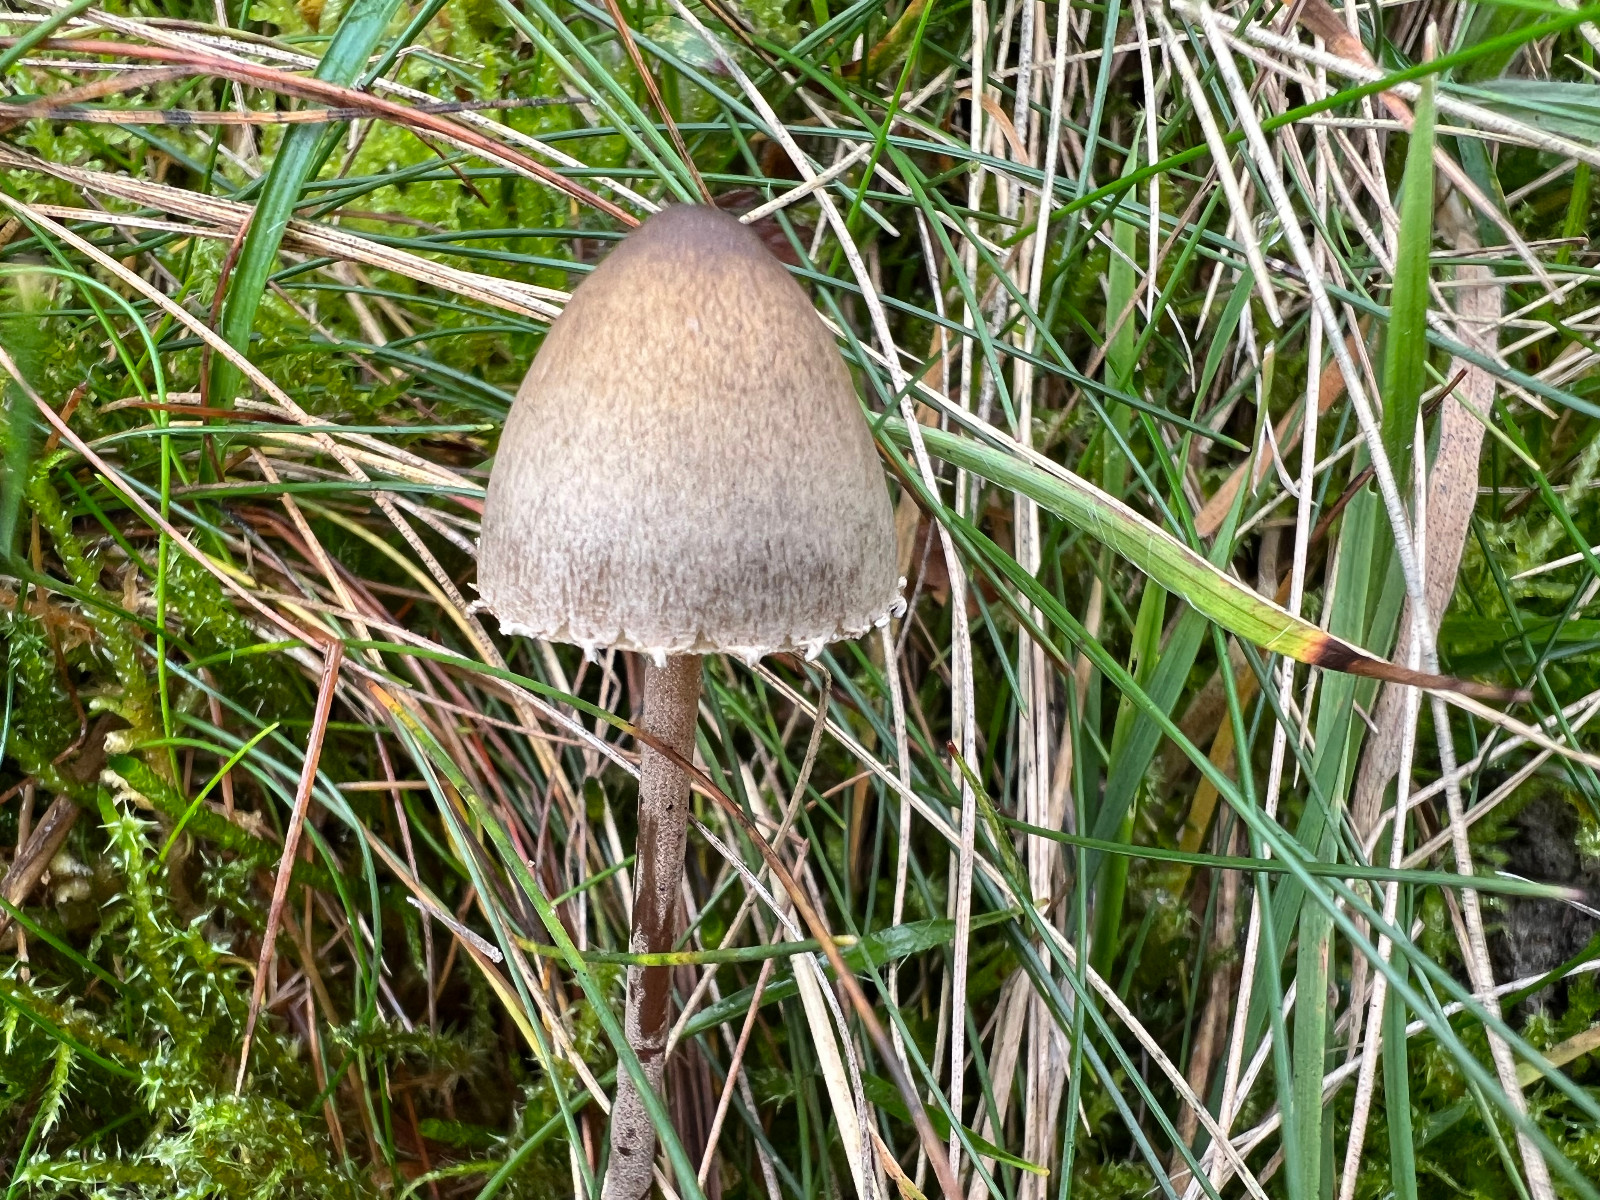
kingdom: Fungi
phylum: Basidiomycota
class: Agaricomycetes
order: Agaricales
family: Bolbitiaceae
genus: Panaeolus
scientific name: Panaeolus papilionaceus
